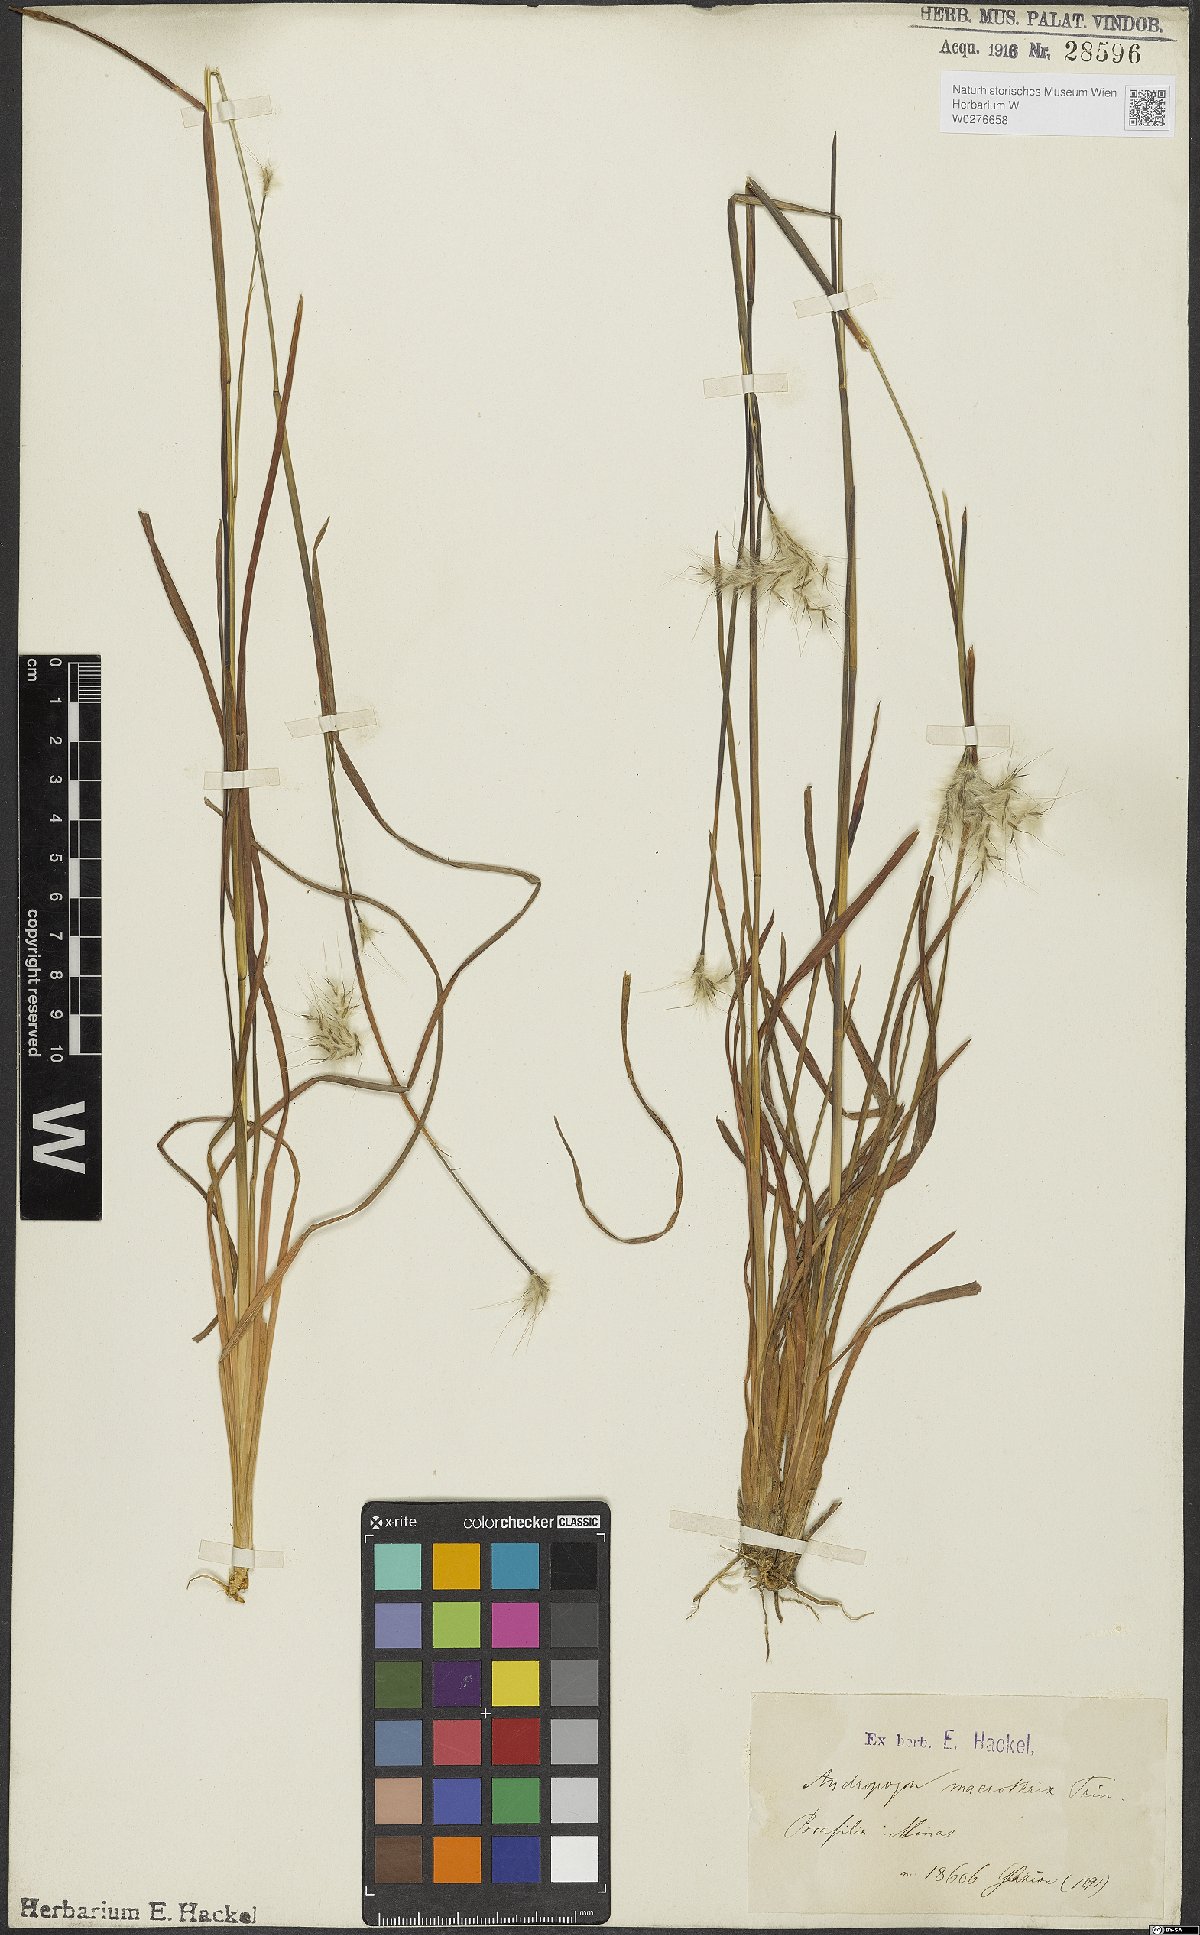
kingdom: Plantae
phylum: Tracheophyta
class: Liliopsida
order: Poales
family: Poaceae
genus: Andropogon
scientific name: Andropogon macrothrix
